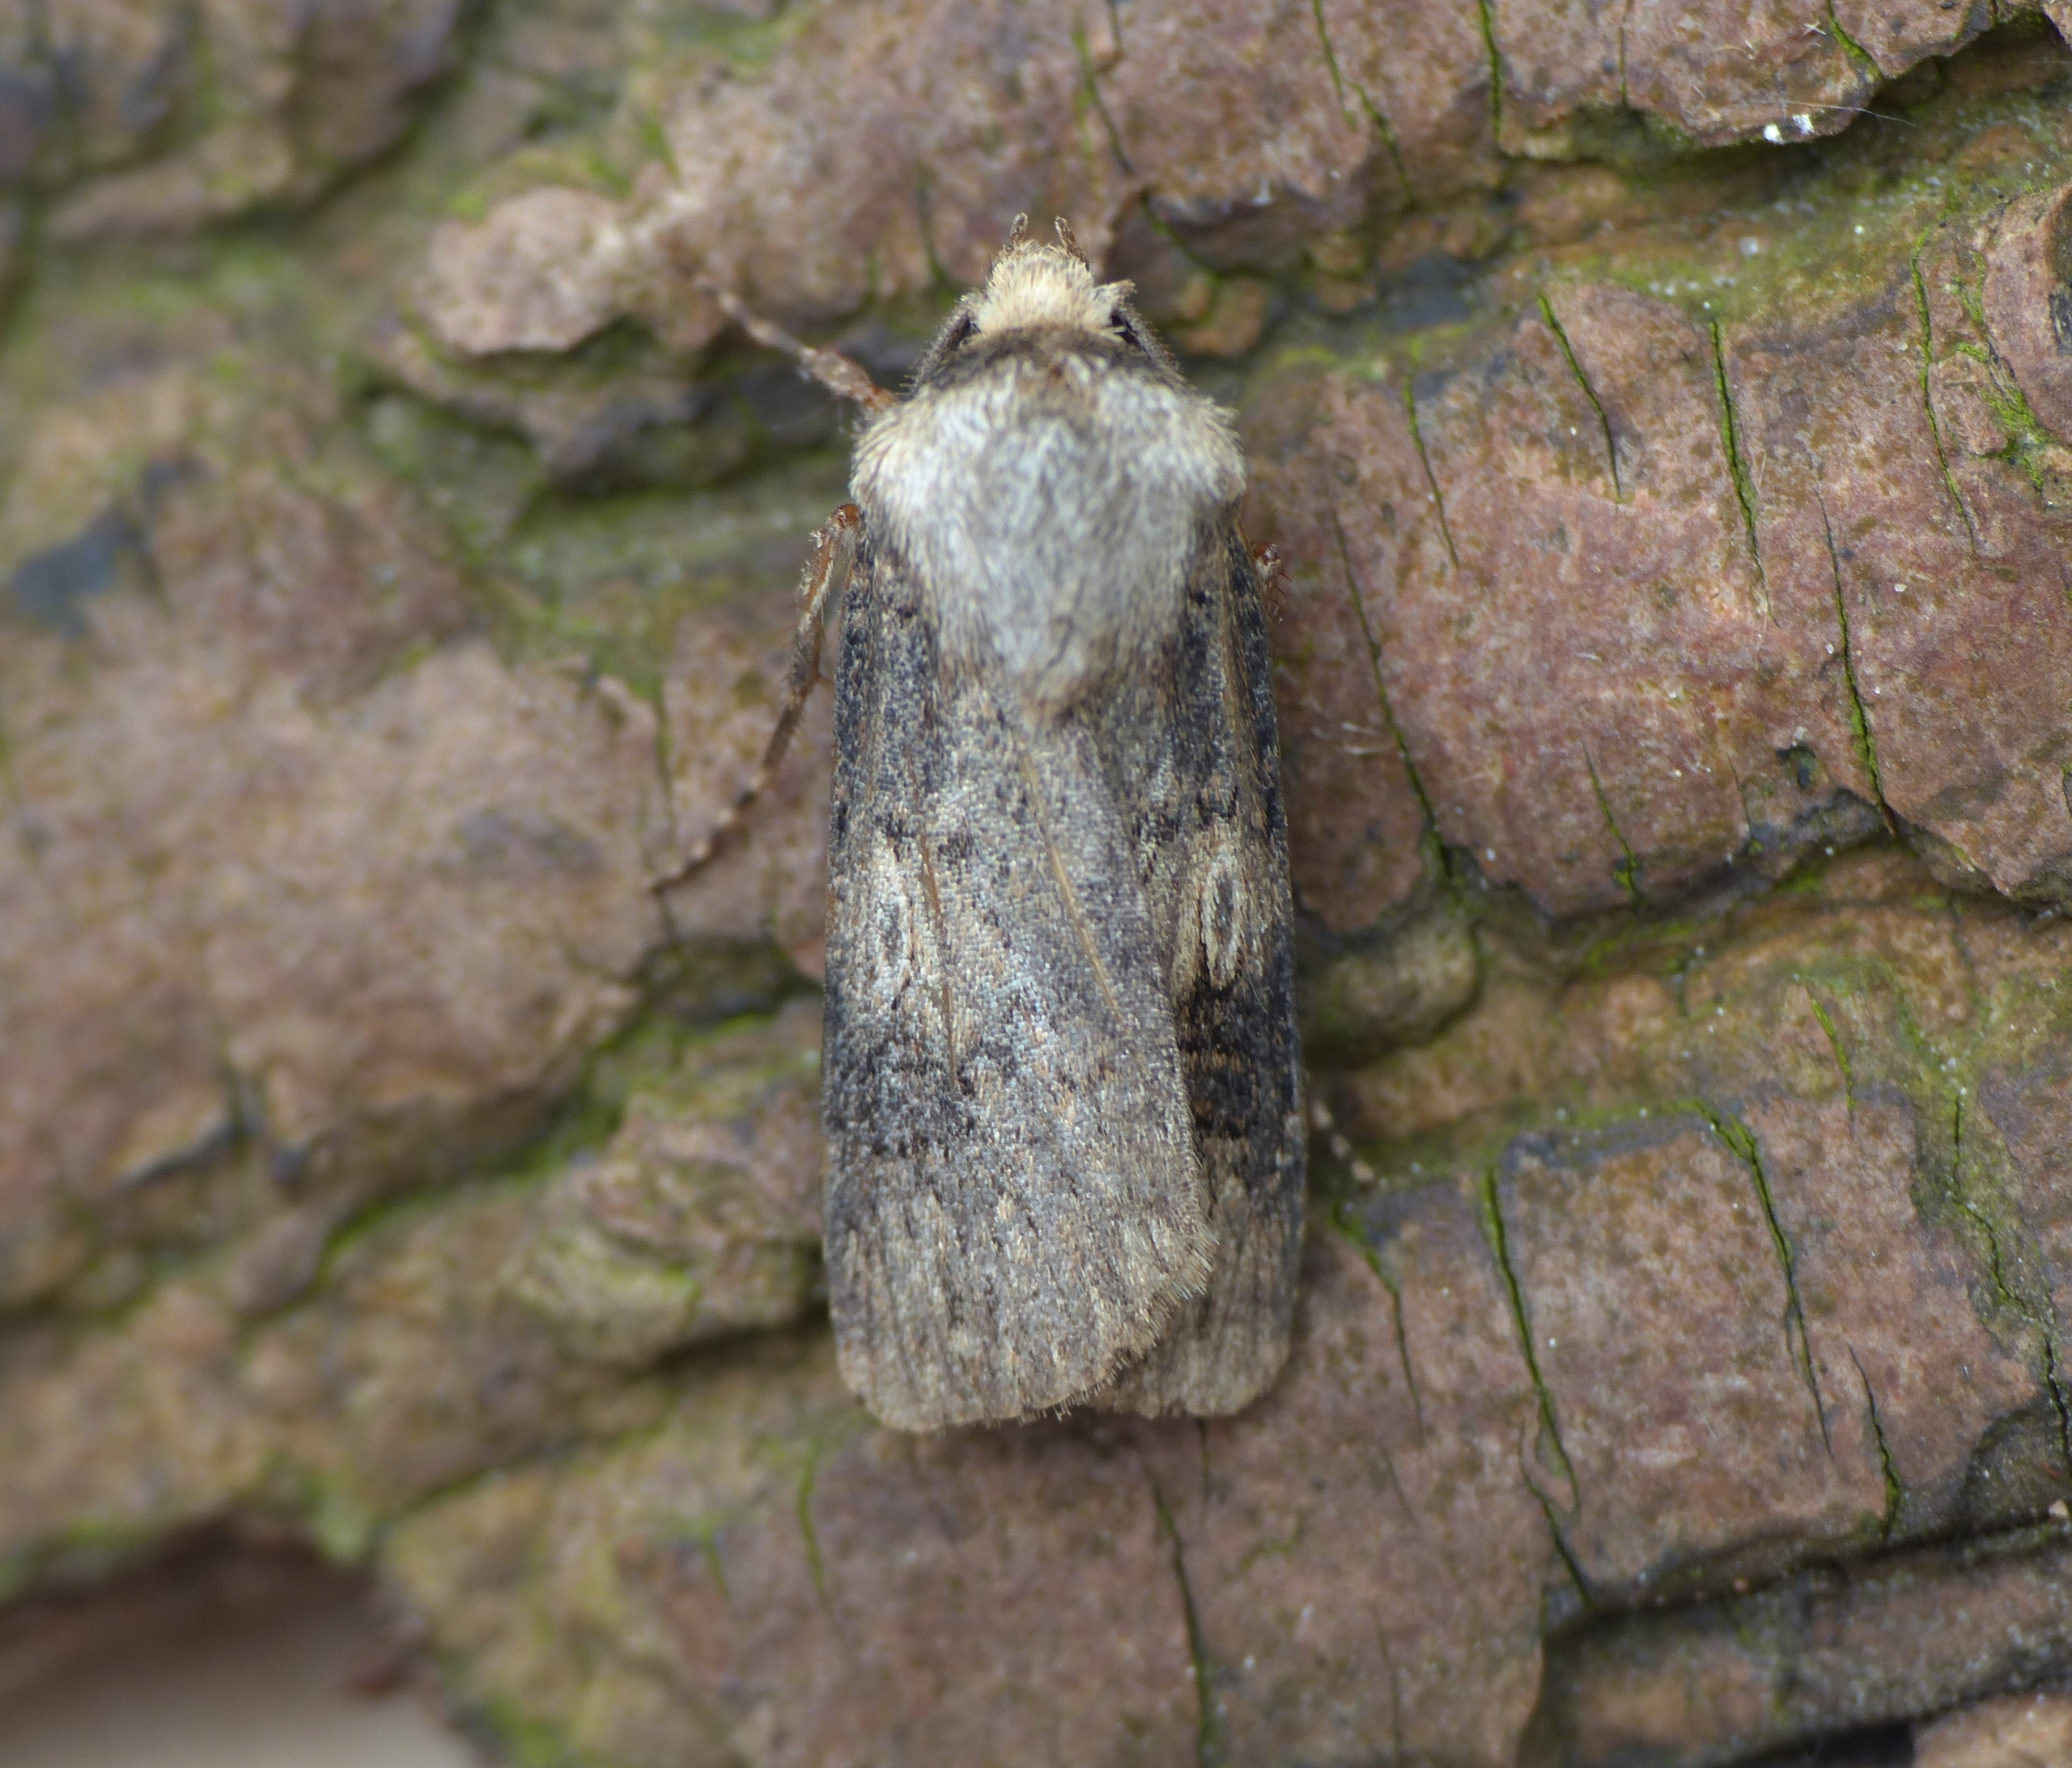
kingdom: Animalia
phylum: Arthropoda
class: Insecta
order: Lepidoptera
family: Noctuidae
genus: Agrotis
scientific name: Agrotis puta
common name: Frønnet landmand
